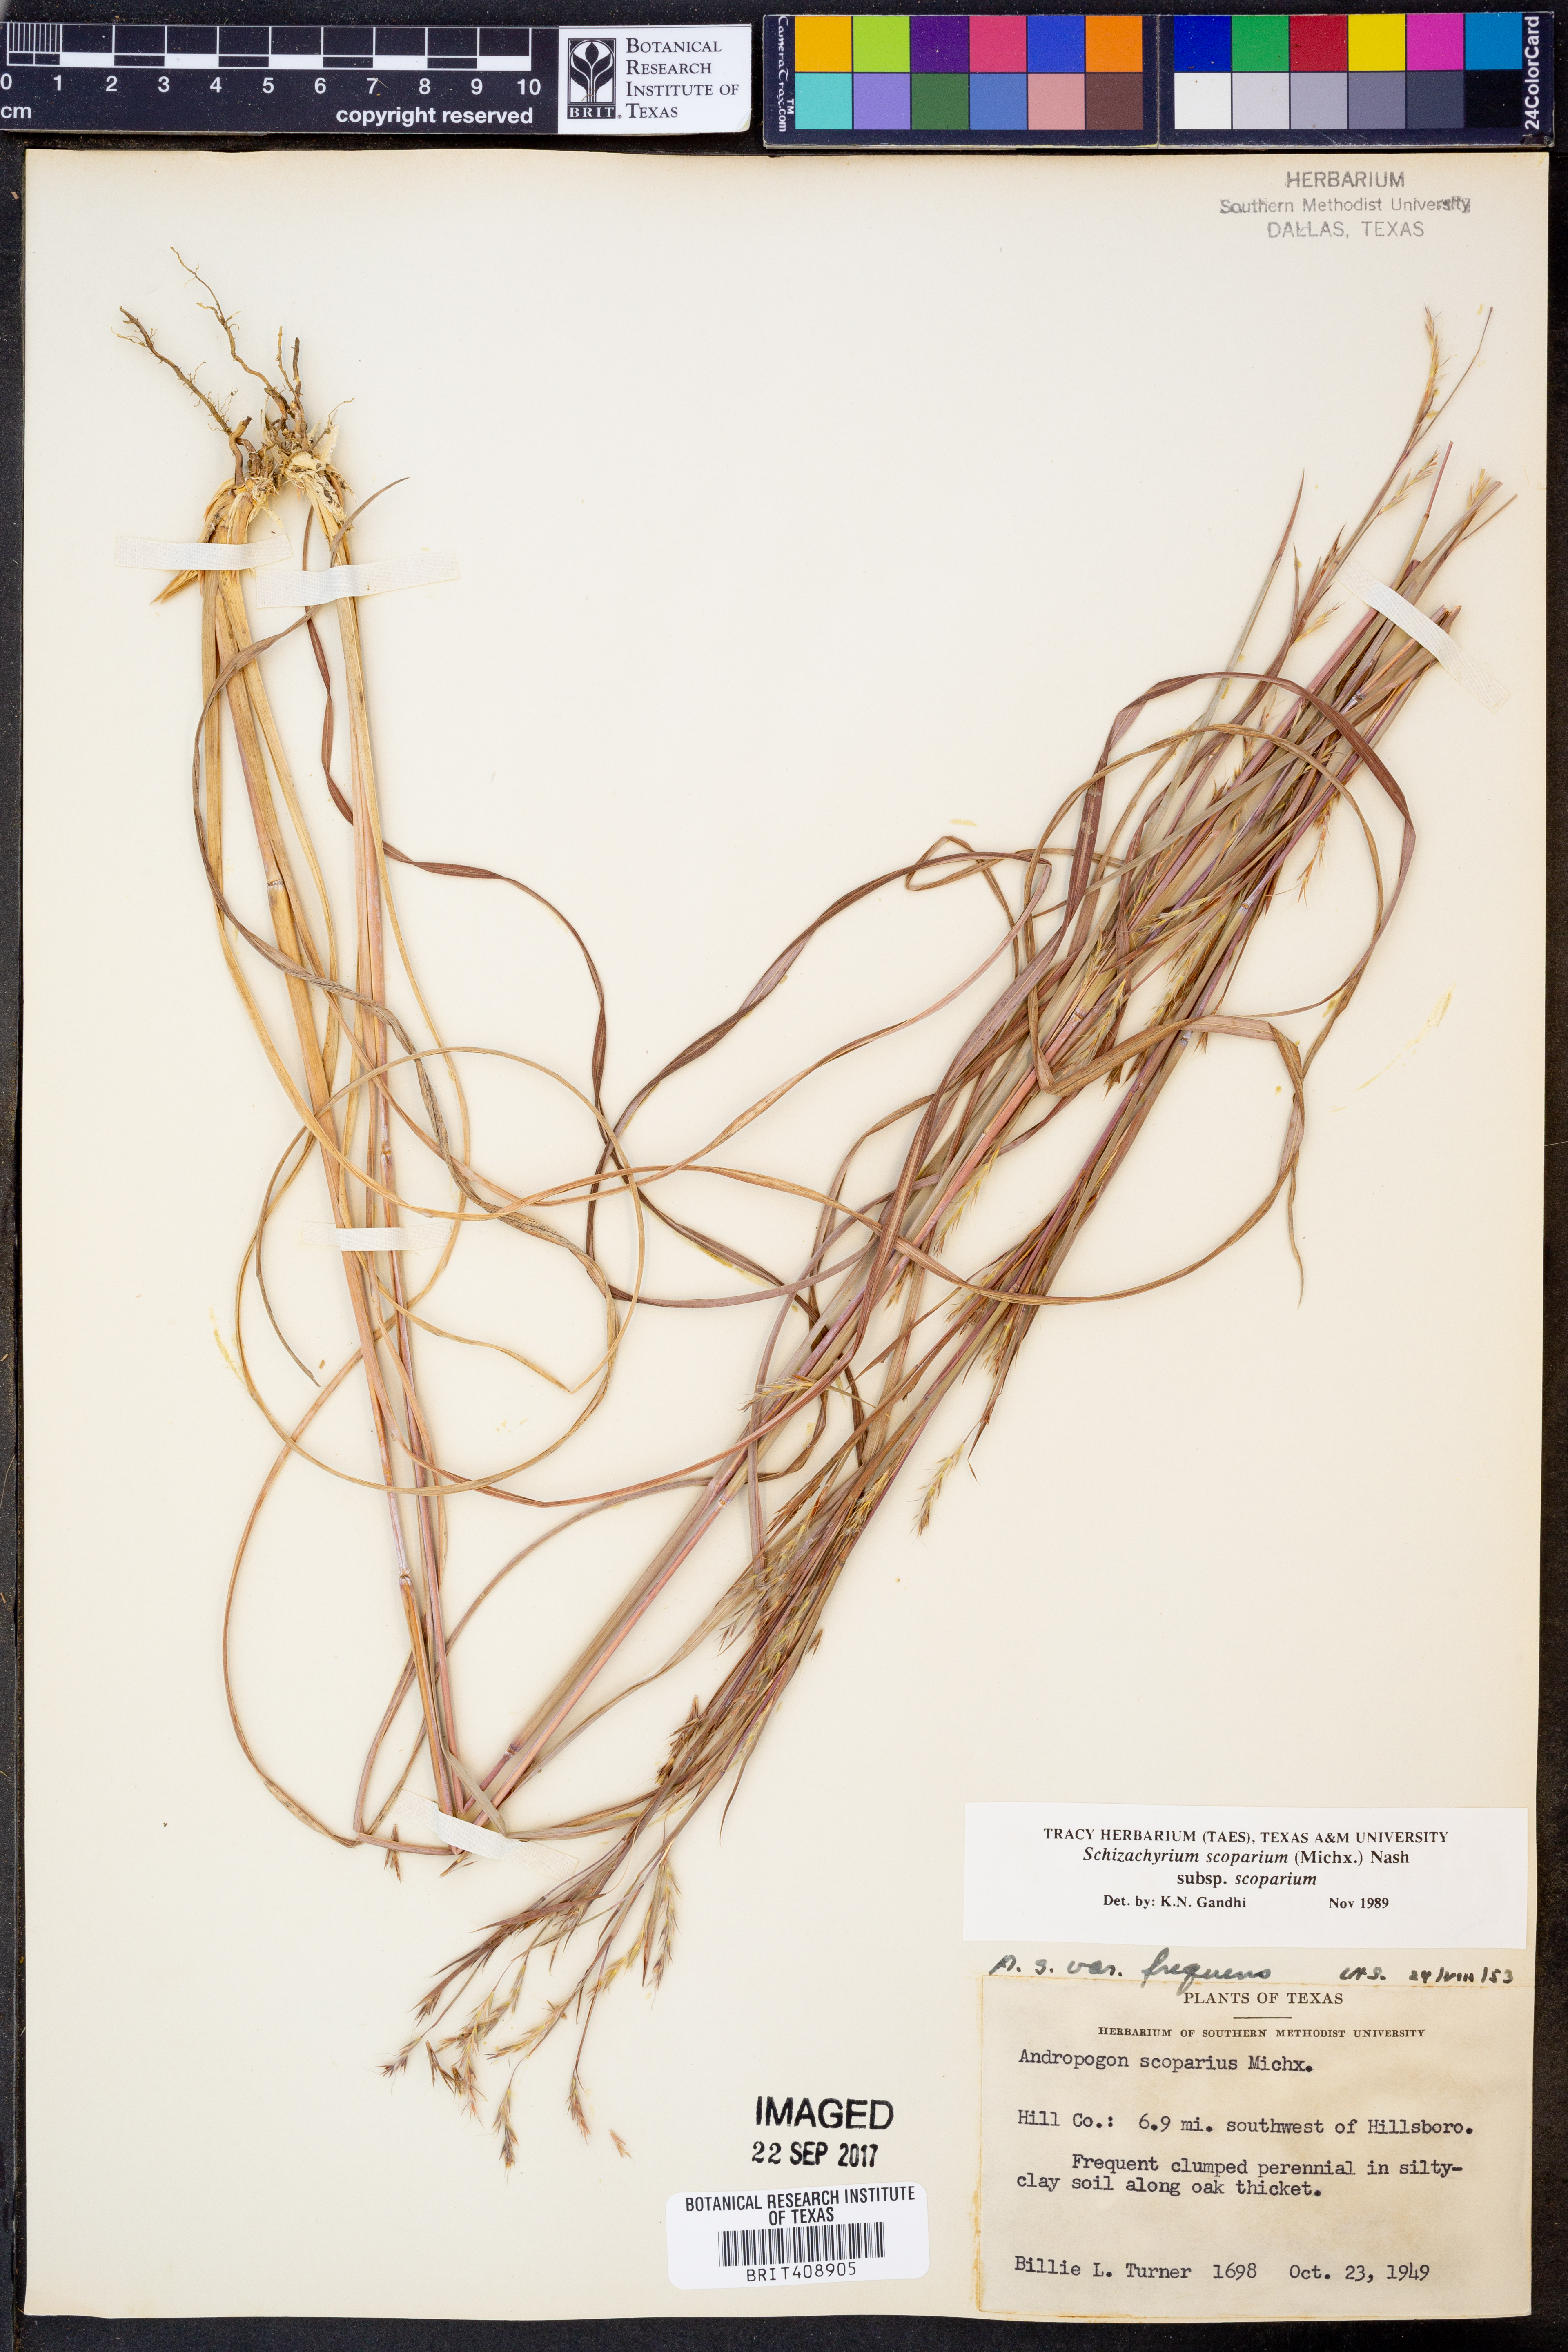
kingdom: Plantae
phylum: Tracheophyta
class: Liliopsida
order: Poales
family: Poaceae
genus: Schizachyrium
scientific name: Schizachyrium scoparium
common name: Little bluestem
